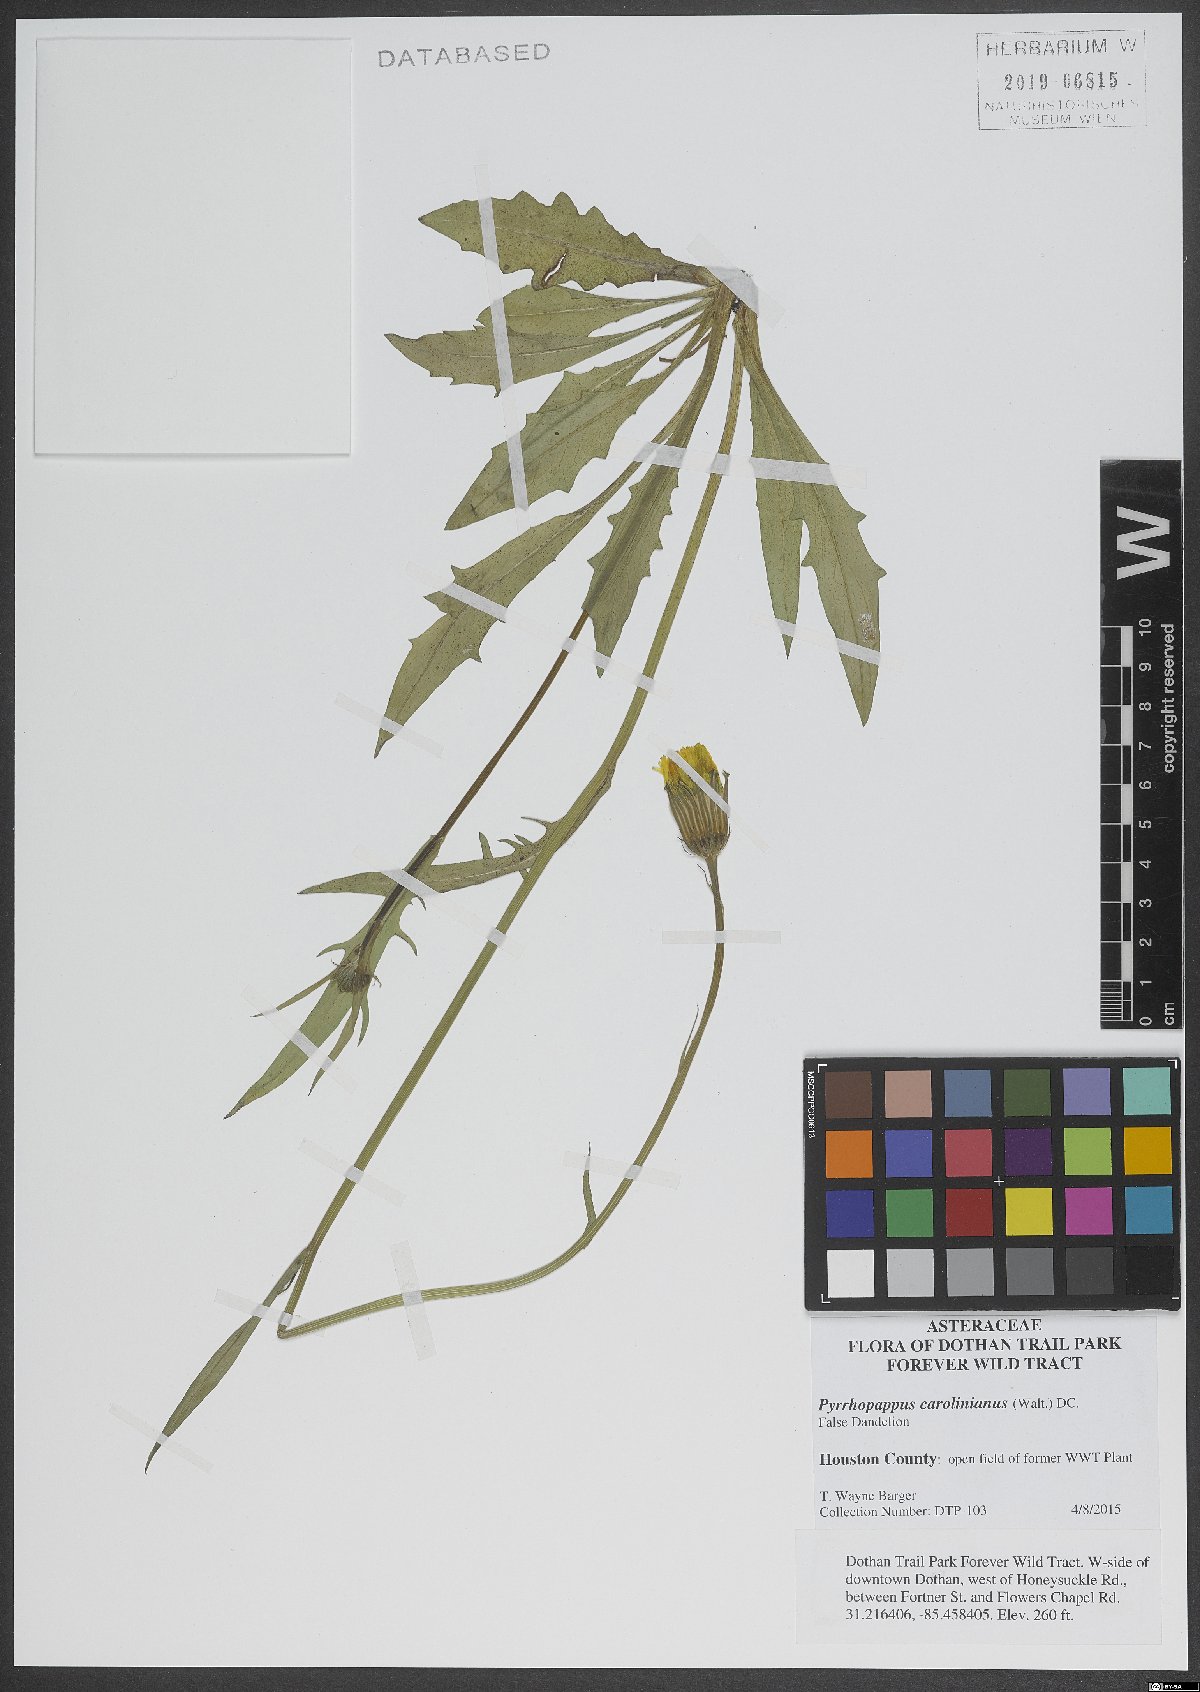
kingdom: Plantae
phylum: Tracheophyta
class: Magnoliopsida
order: Asterales
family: Asteraceae
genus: Pyrrhopappus
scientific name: Pyrrhopappus carolinianus
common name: Carolina desert-chicory
